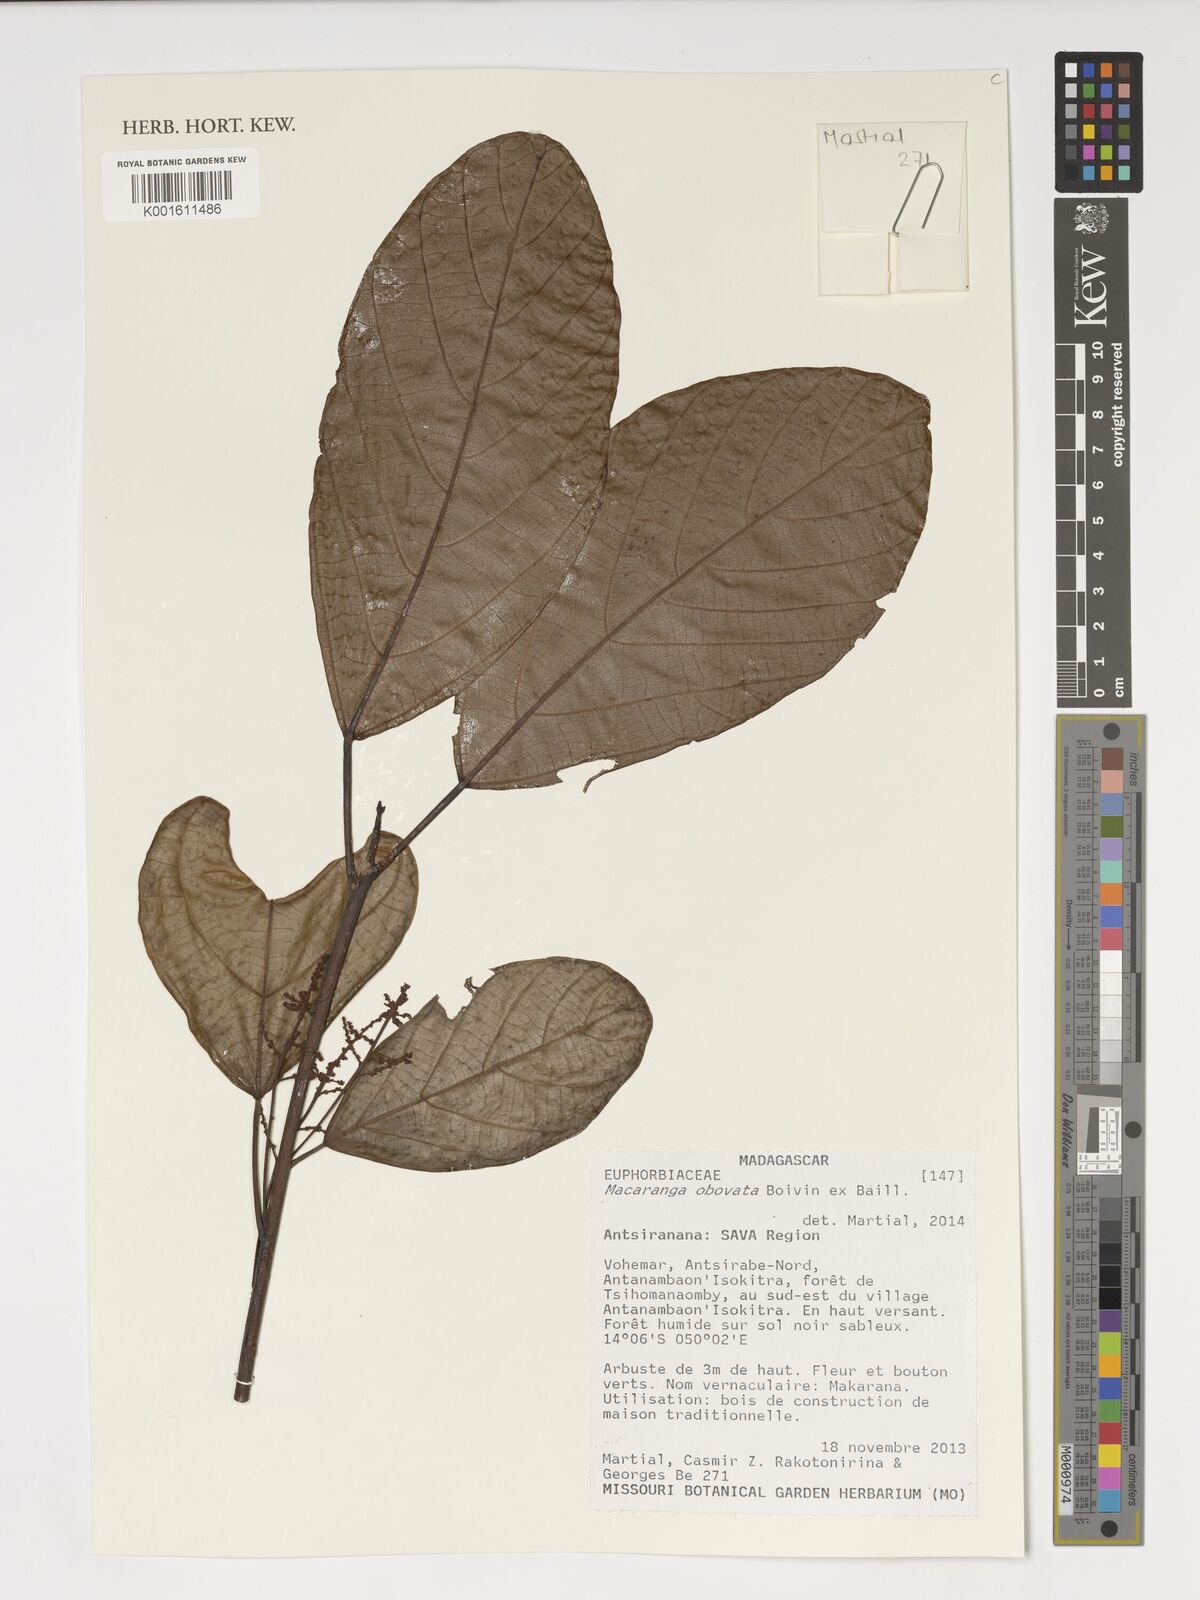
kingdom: Plantae
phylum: Tracheophyta
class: Magnoliopsida
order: Malpighiales
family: Euphorbiaceae
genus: Macaranga
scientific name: Macaranga obovata
